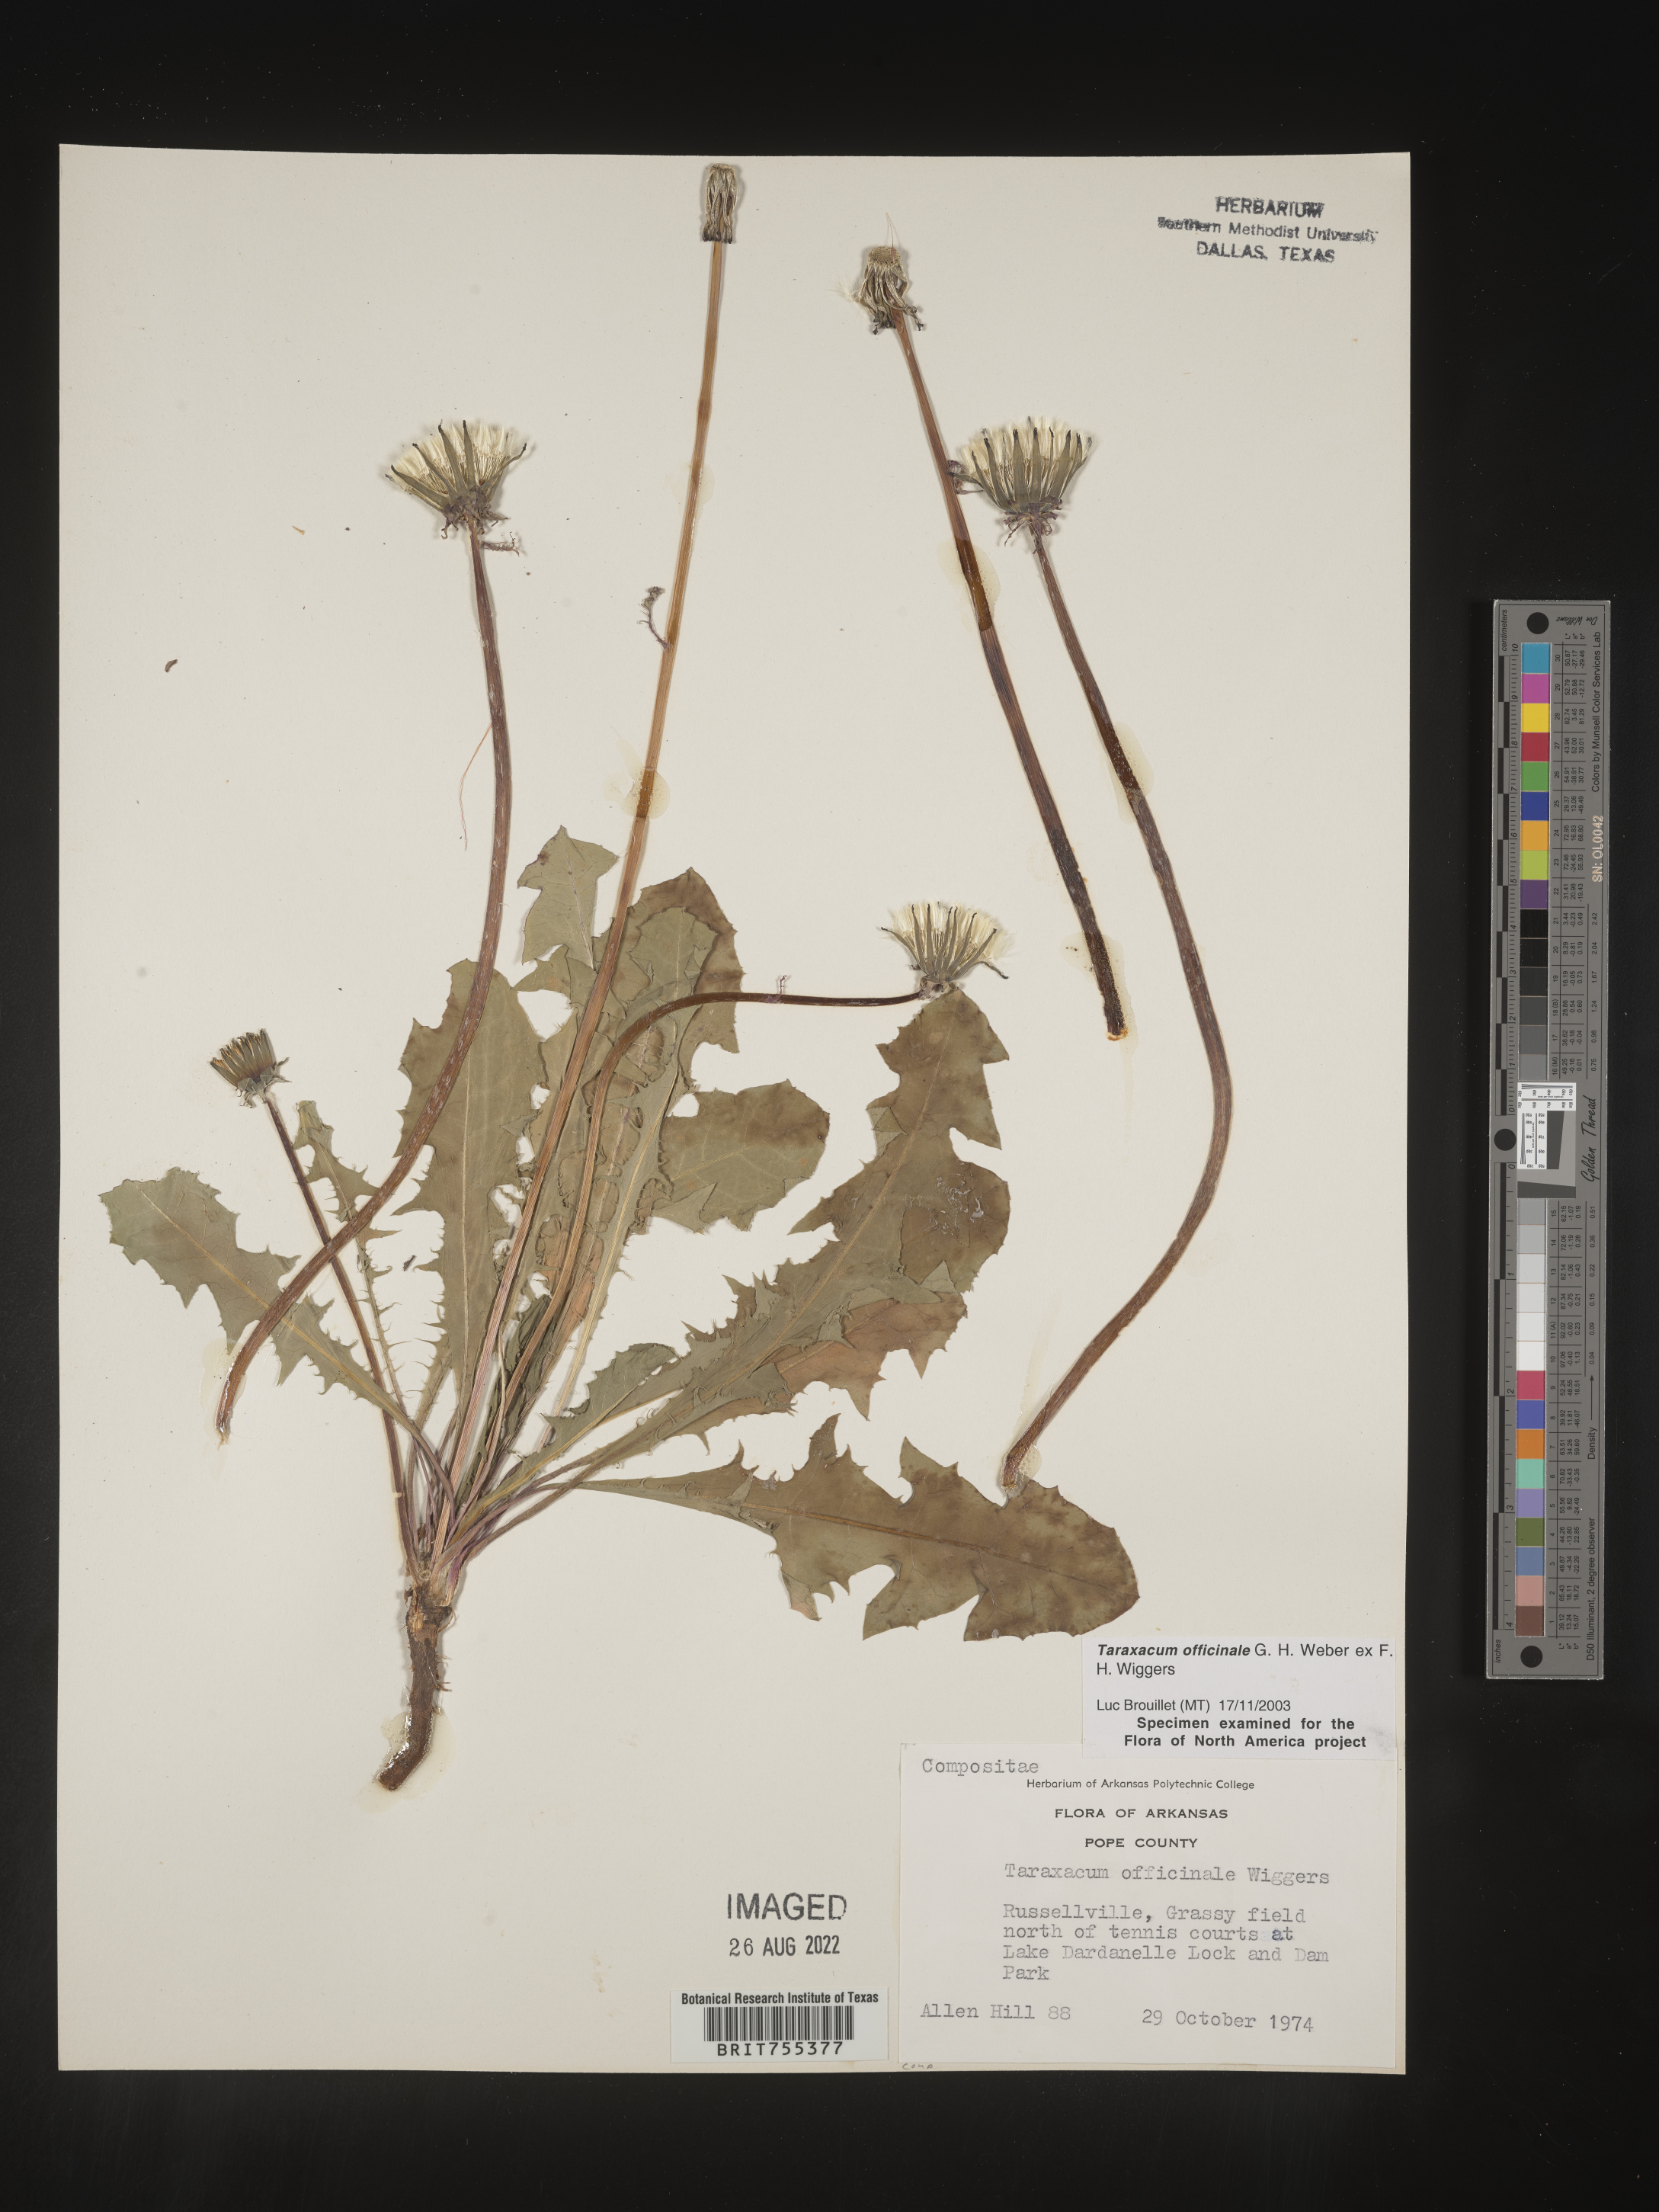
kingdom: Plantae
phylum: Tracheophyta
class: Magnoliopsida
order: Asterales
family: Asteraceae
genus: Taraxacum
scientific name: Taraxacum officinale
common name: Common dandelion
